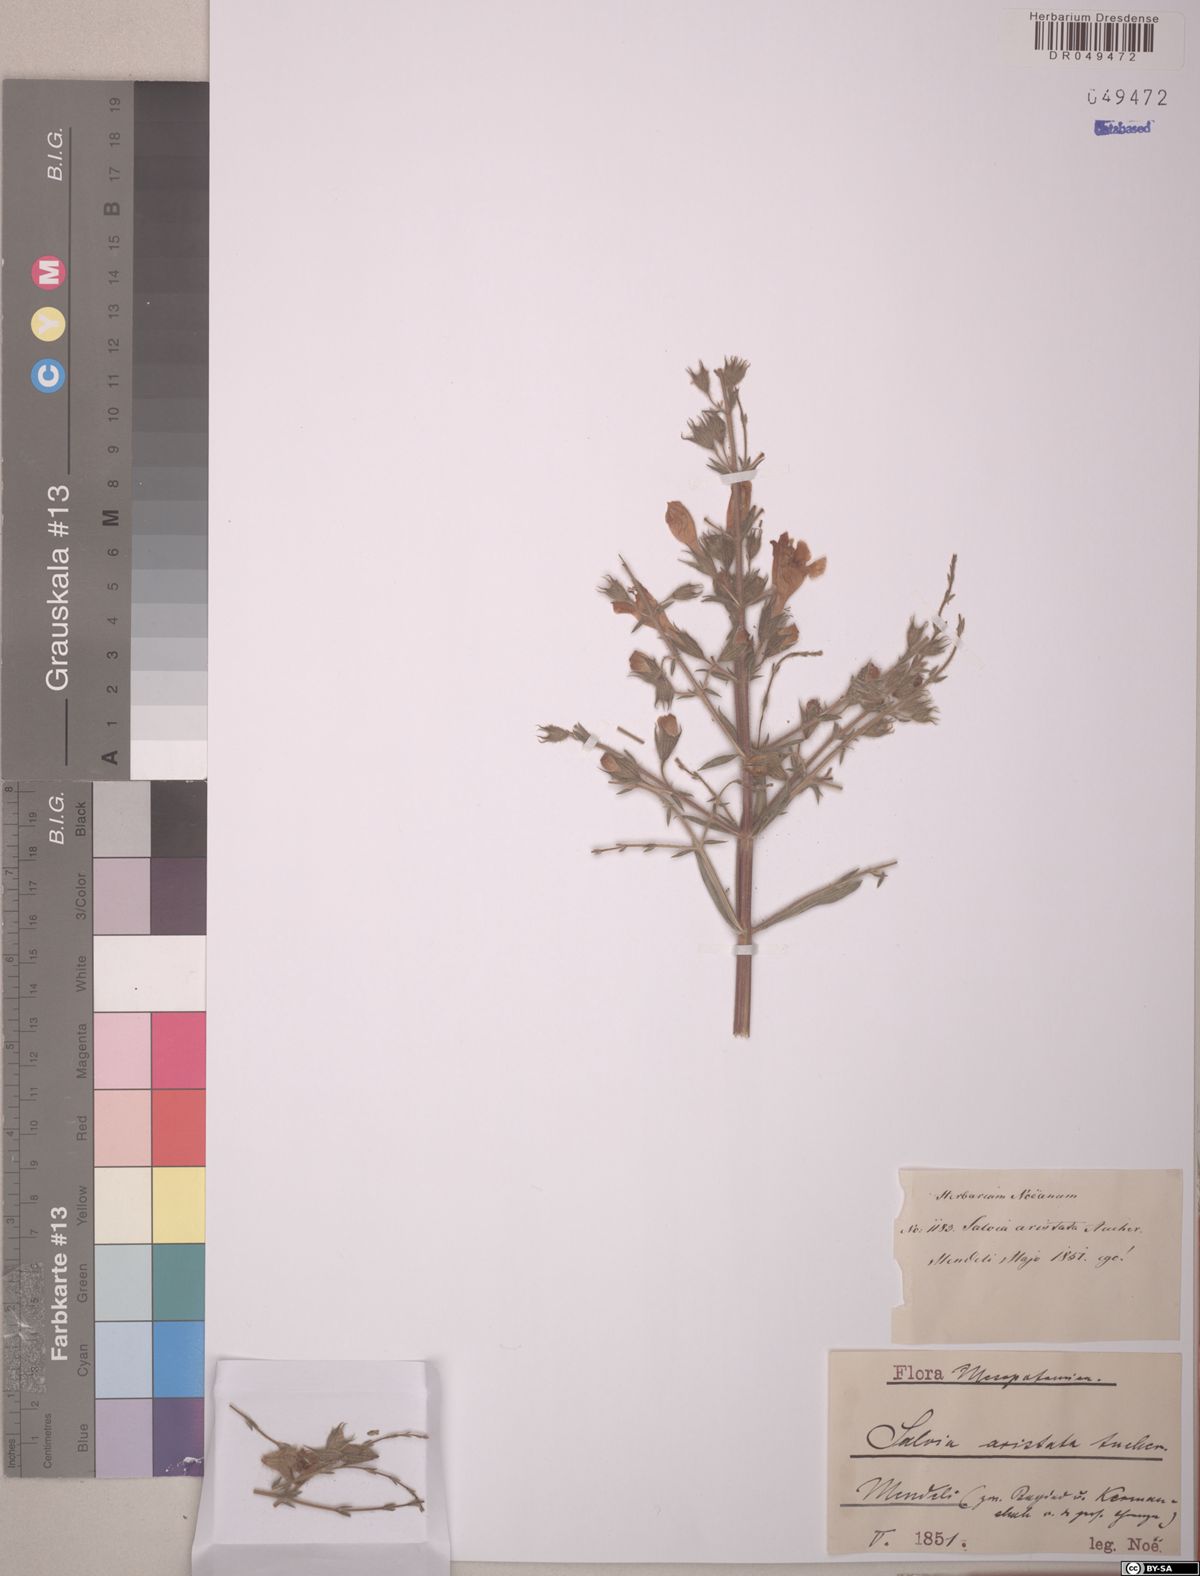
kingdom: Plantae
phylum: Tracheophyta
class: Magnoliopsida
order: Lamiales
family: Lamiaceae
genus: Salvia
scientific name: Salvia aristata
